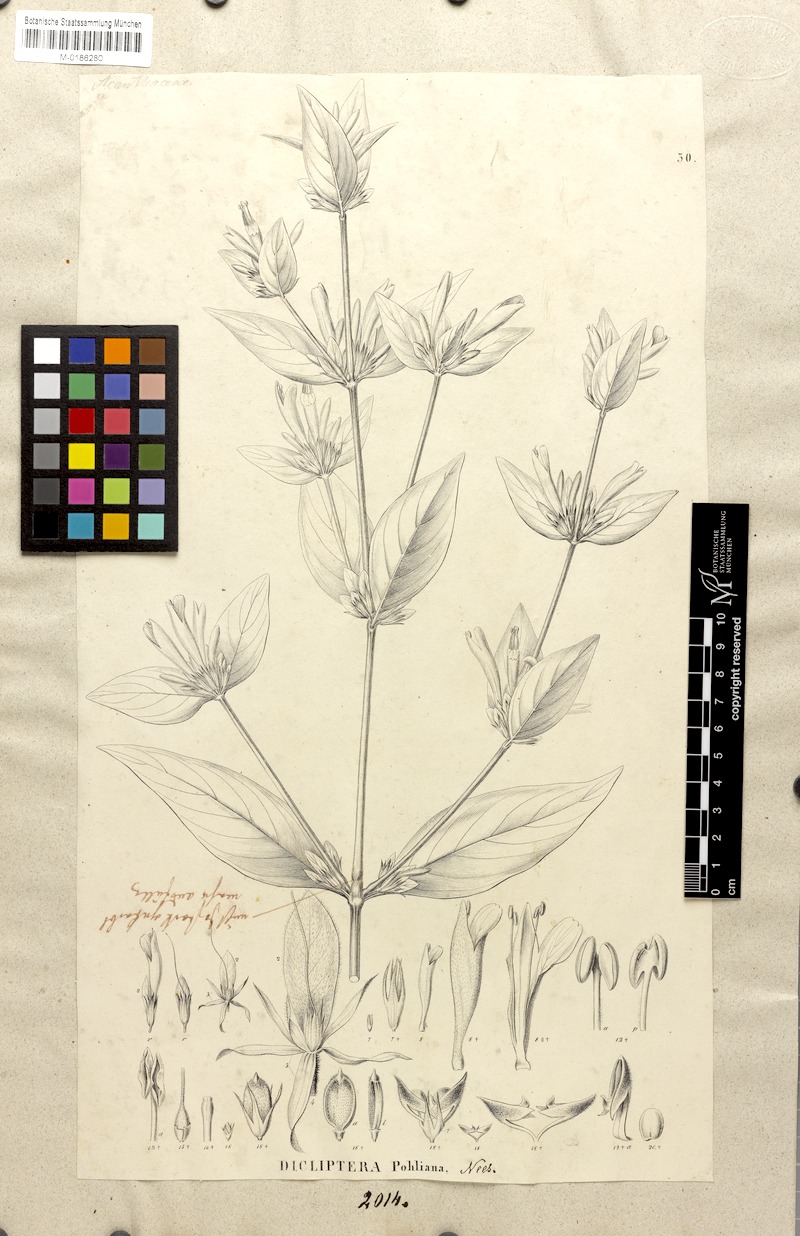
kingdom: Plantae
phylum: Tracheophyta
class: Magnoliopsida
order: Lamiales
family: Acanthaceae
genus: Dicliptera
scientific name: Dicliptera squarrosa
